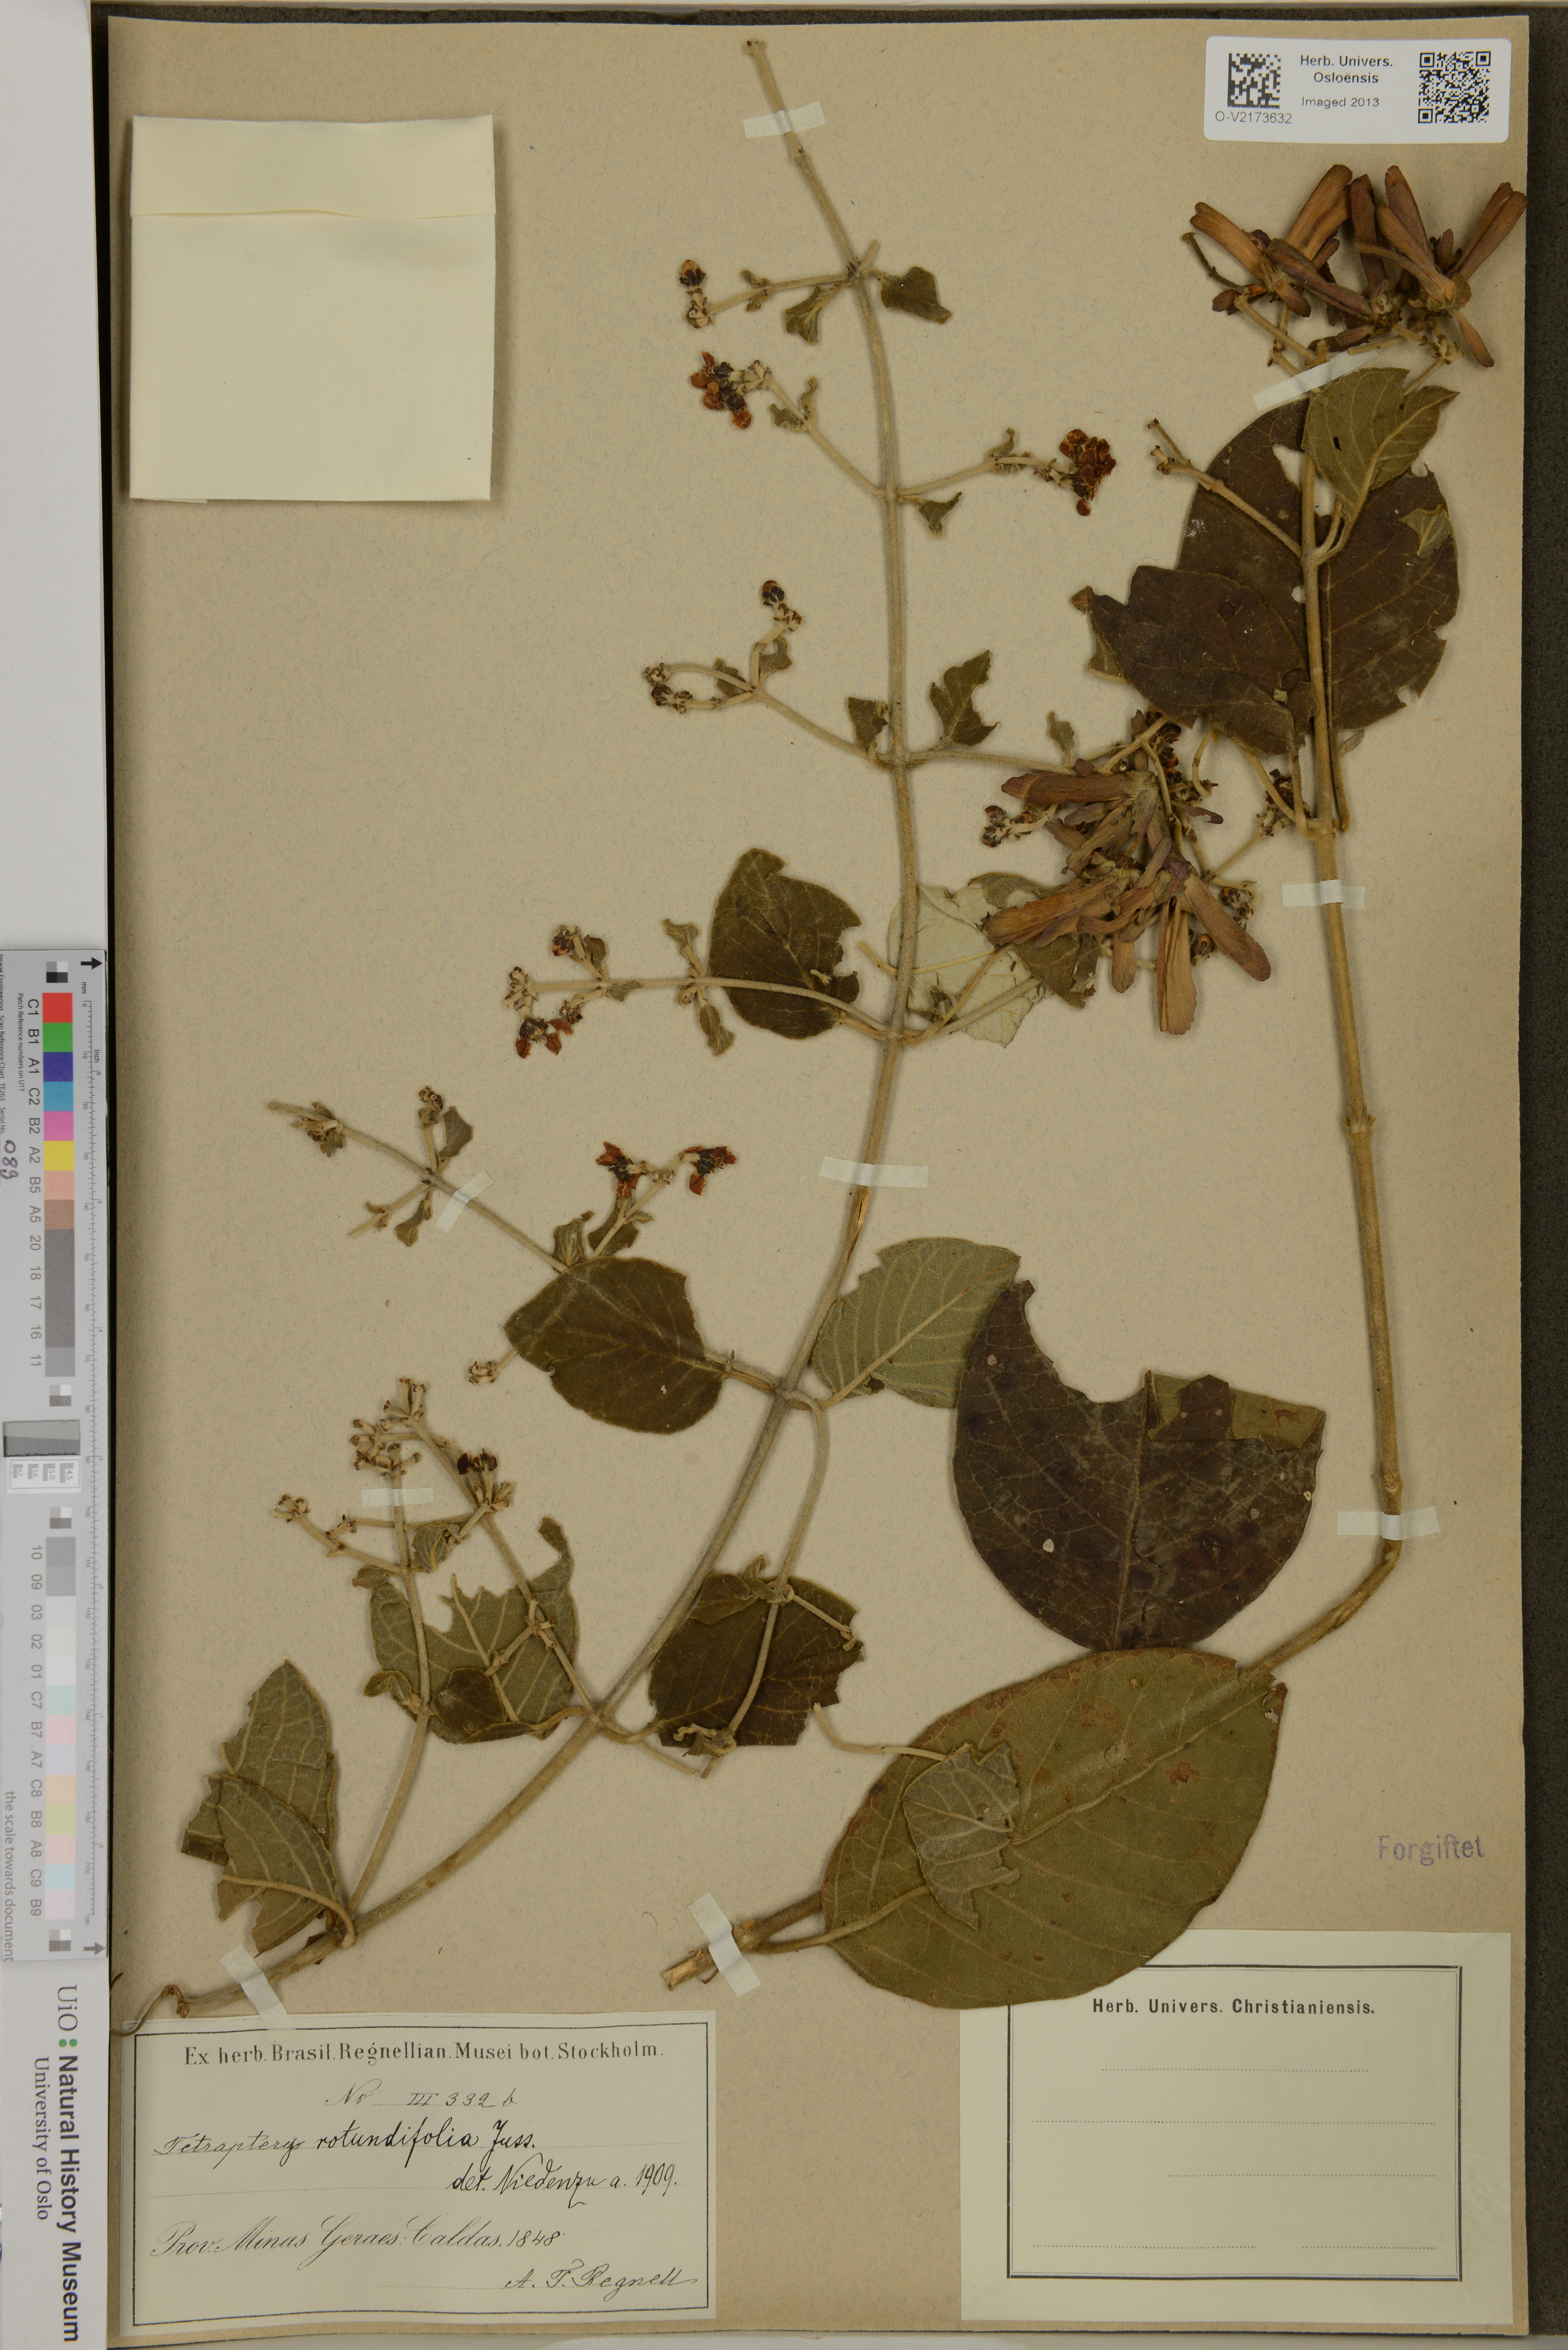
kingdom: Plantae
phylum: Tracheophyta
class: Magnoliopsida
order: Malpighiales
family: Malpighiaceae
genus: Tetrapterys
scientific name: Tetrapterys phlomoides
